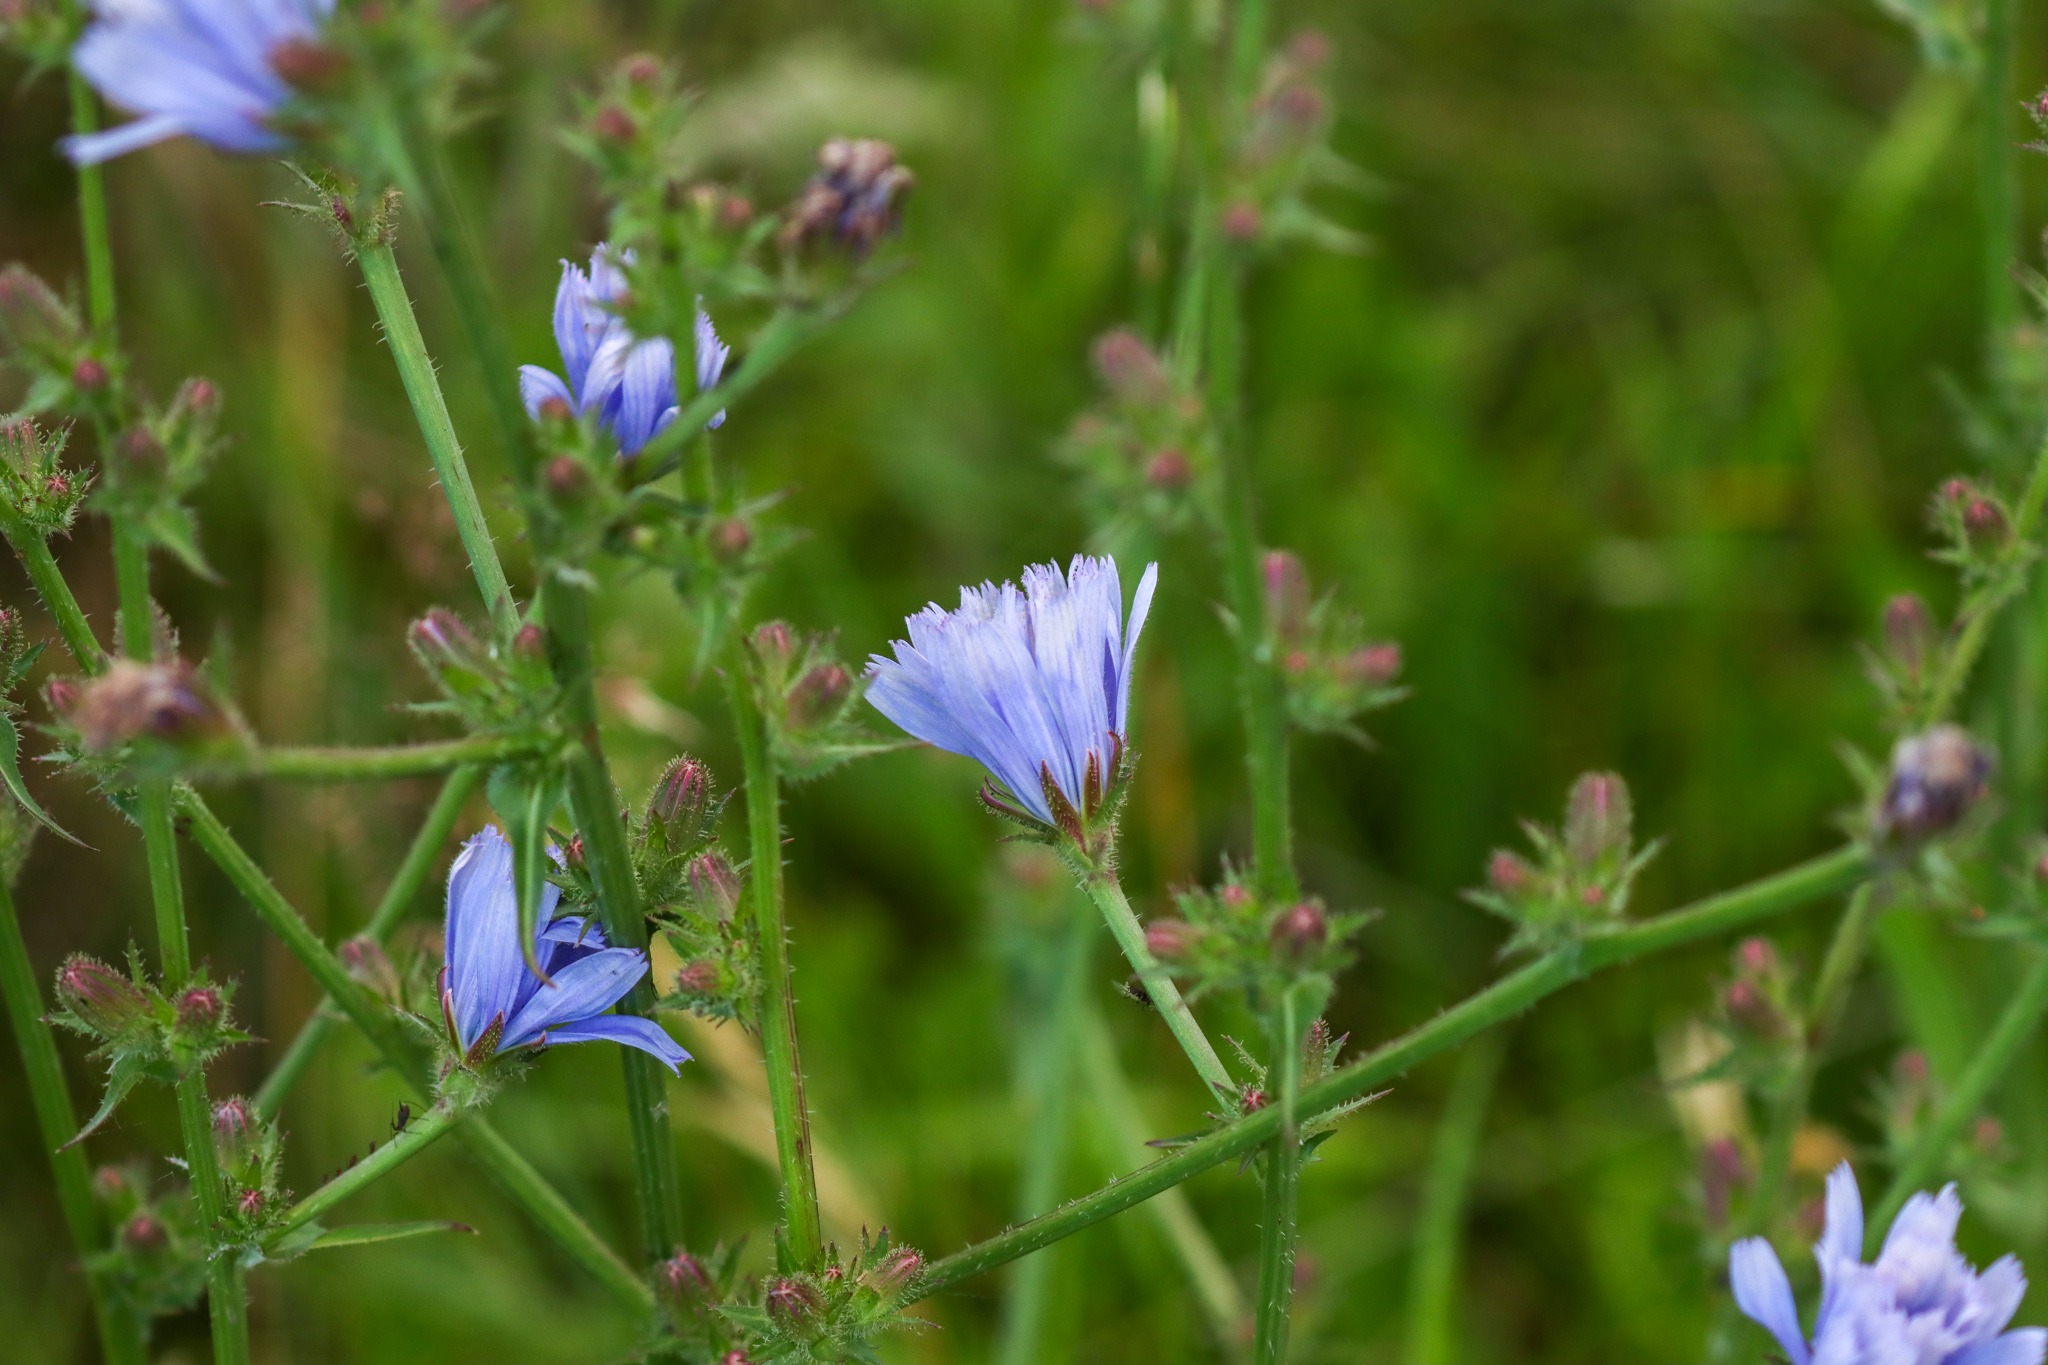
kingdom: Plantae
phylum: Tracheophyta
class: Magnoliopsida
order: Asterales
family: Asteraceae
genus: Cichorium
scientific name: Cichorium intybus
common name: Cikorie
